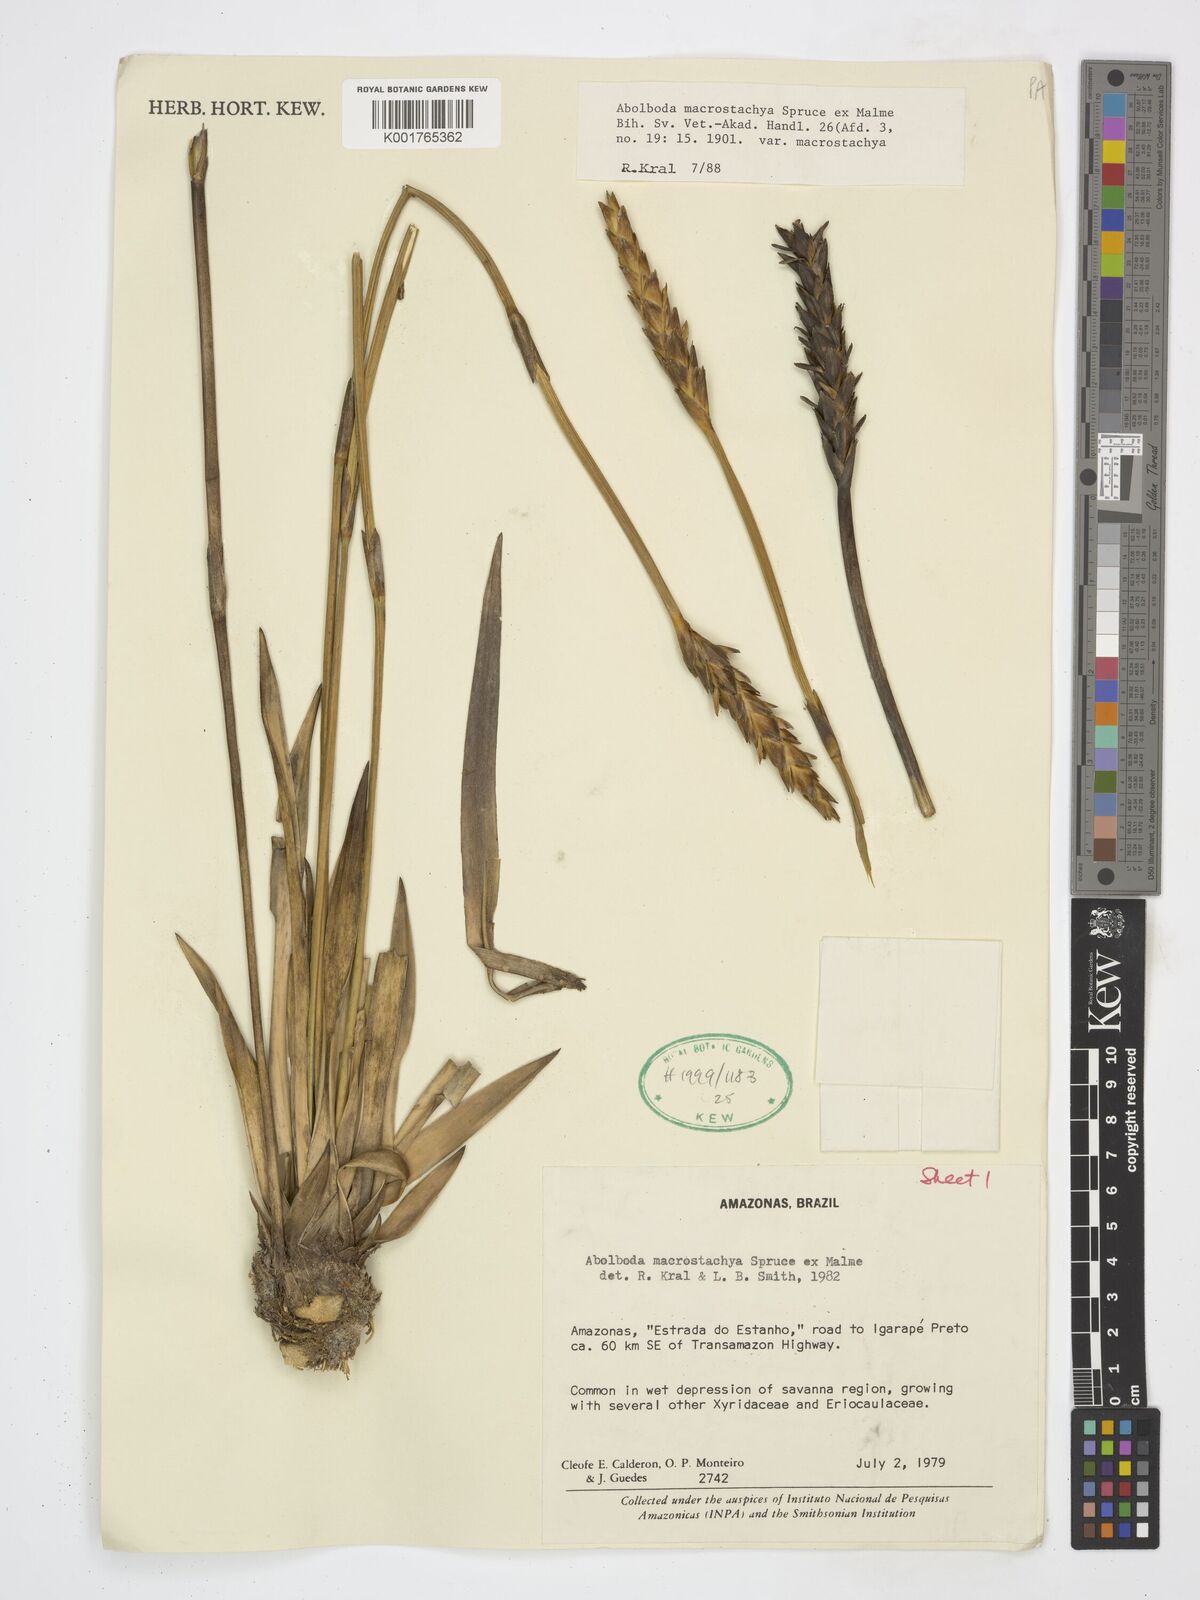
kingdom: Plantae
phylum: Tracheophyta
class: Liliopsida
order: Poales
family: Xyridaceae
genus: Abolboda
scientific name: Abolboda macrostachya
